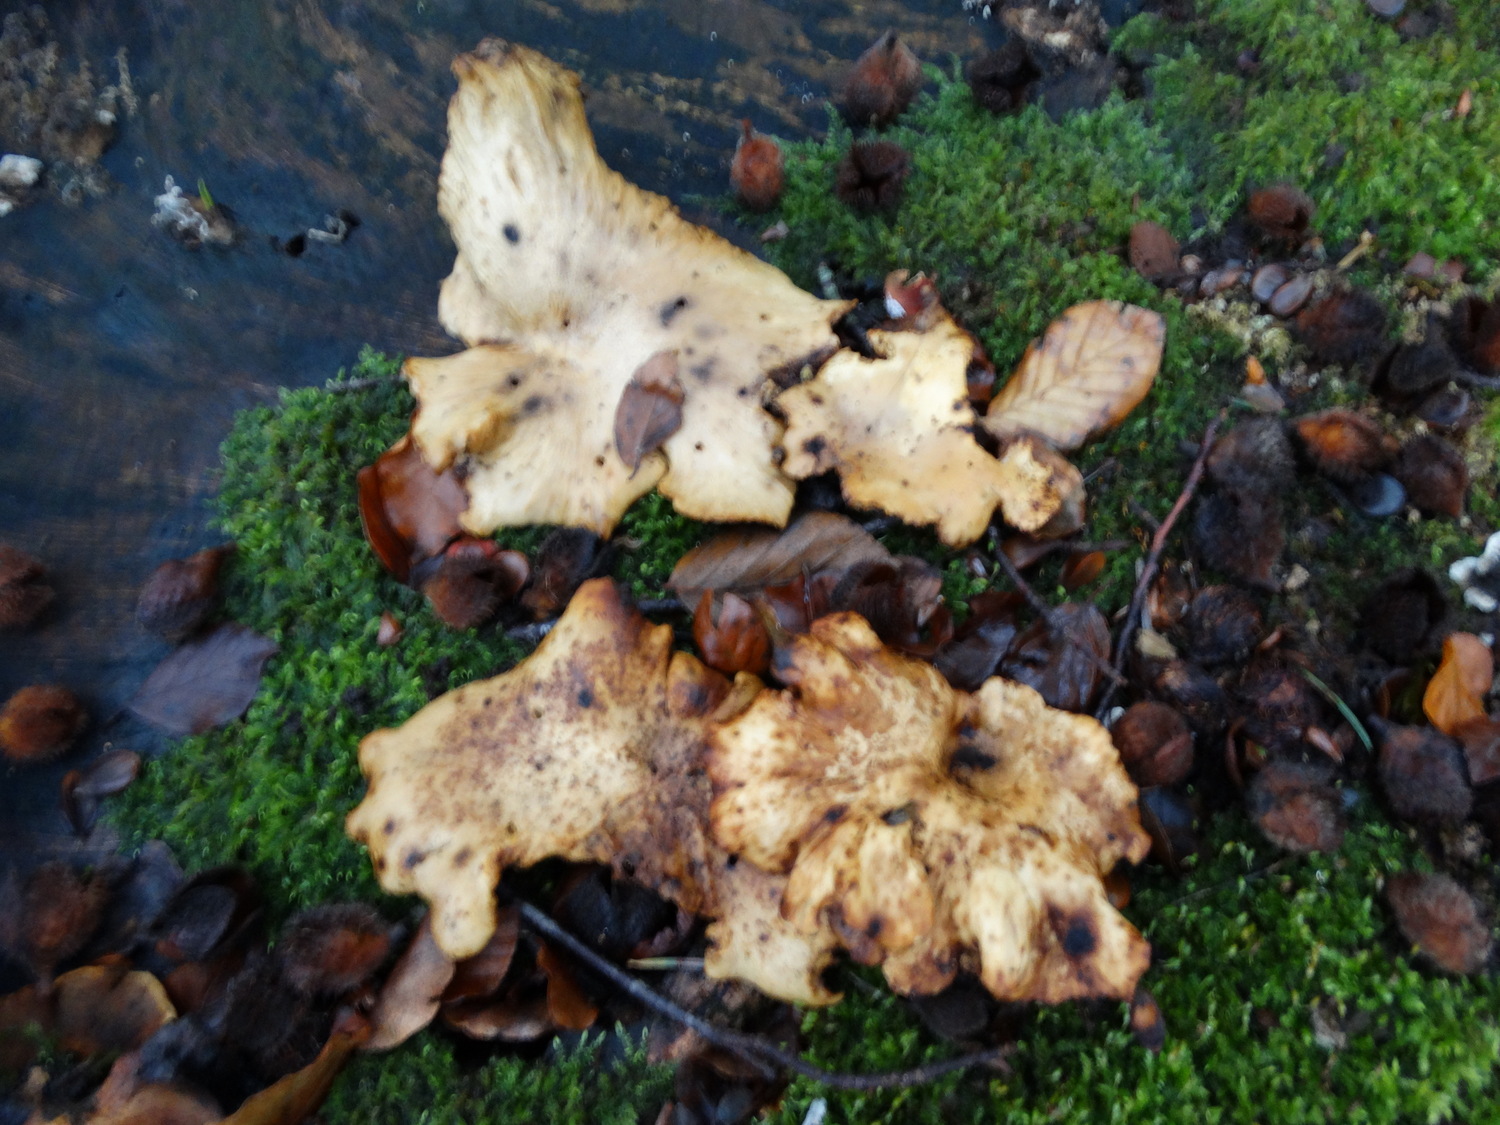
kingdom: Fungi
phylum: Basidiomycota
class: Agaricomycetes
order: Polyporales
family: Polyporaceae
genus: Cerioporus
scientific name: Cerioporus varius
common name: foranderlig stilkporesvamp
